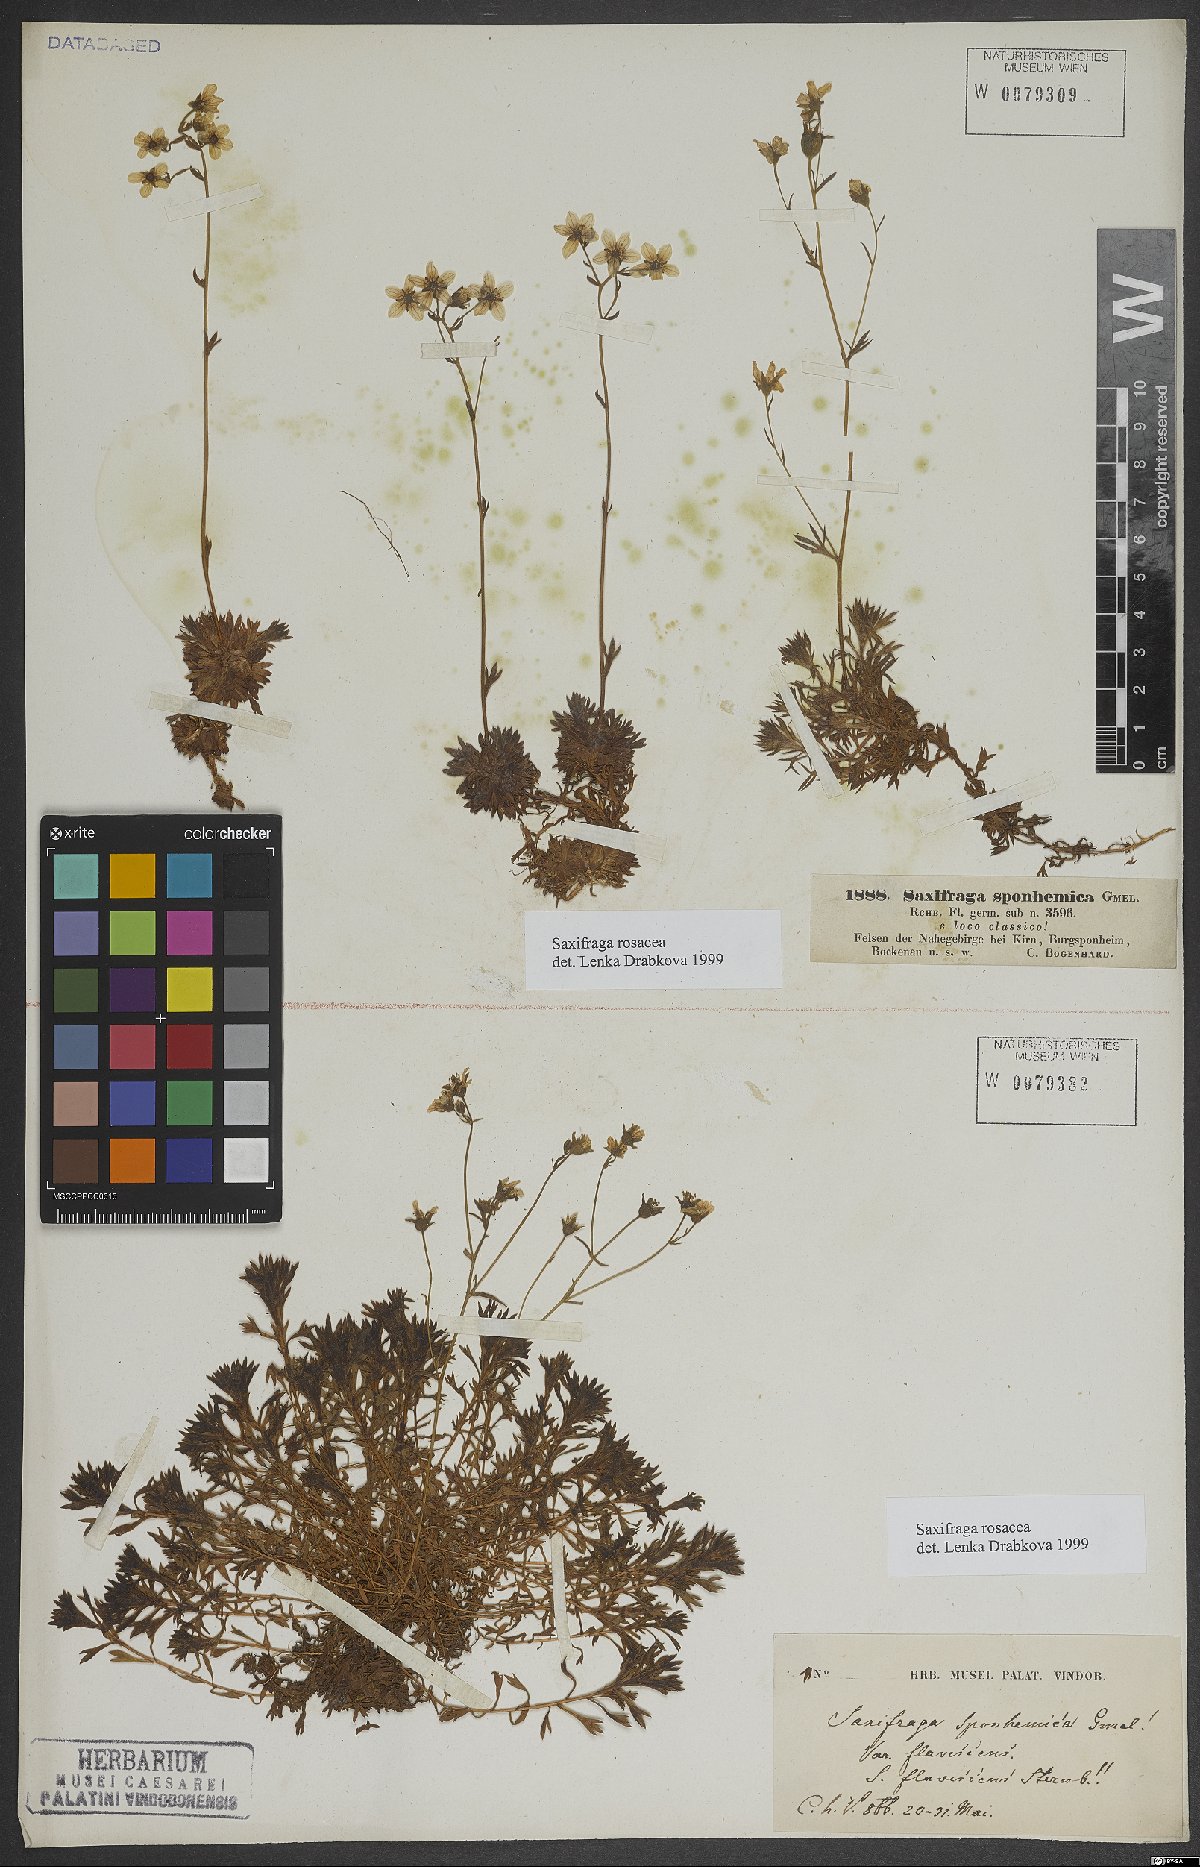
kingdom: Plantae
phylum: Tracheophyta
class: Magnoliopsida
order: Saxifragales
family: Saxifragaceae
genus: Saxifraga
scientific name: Saxifraga rosacea
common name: Irish saxifrage
